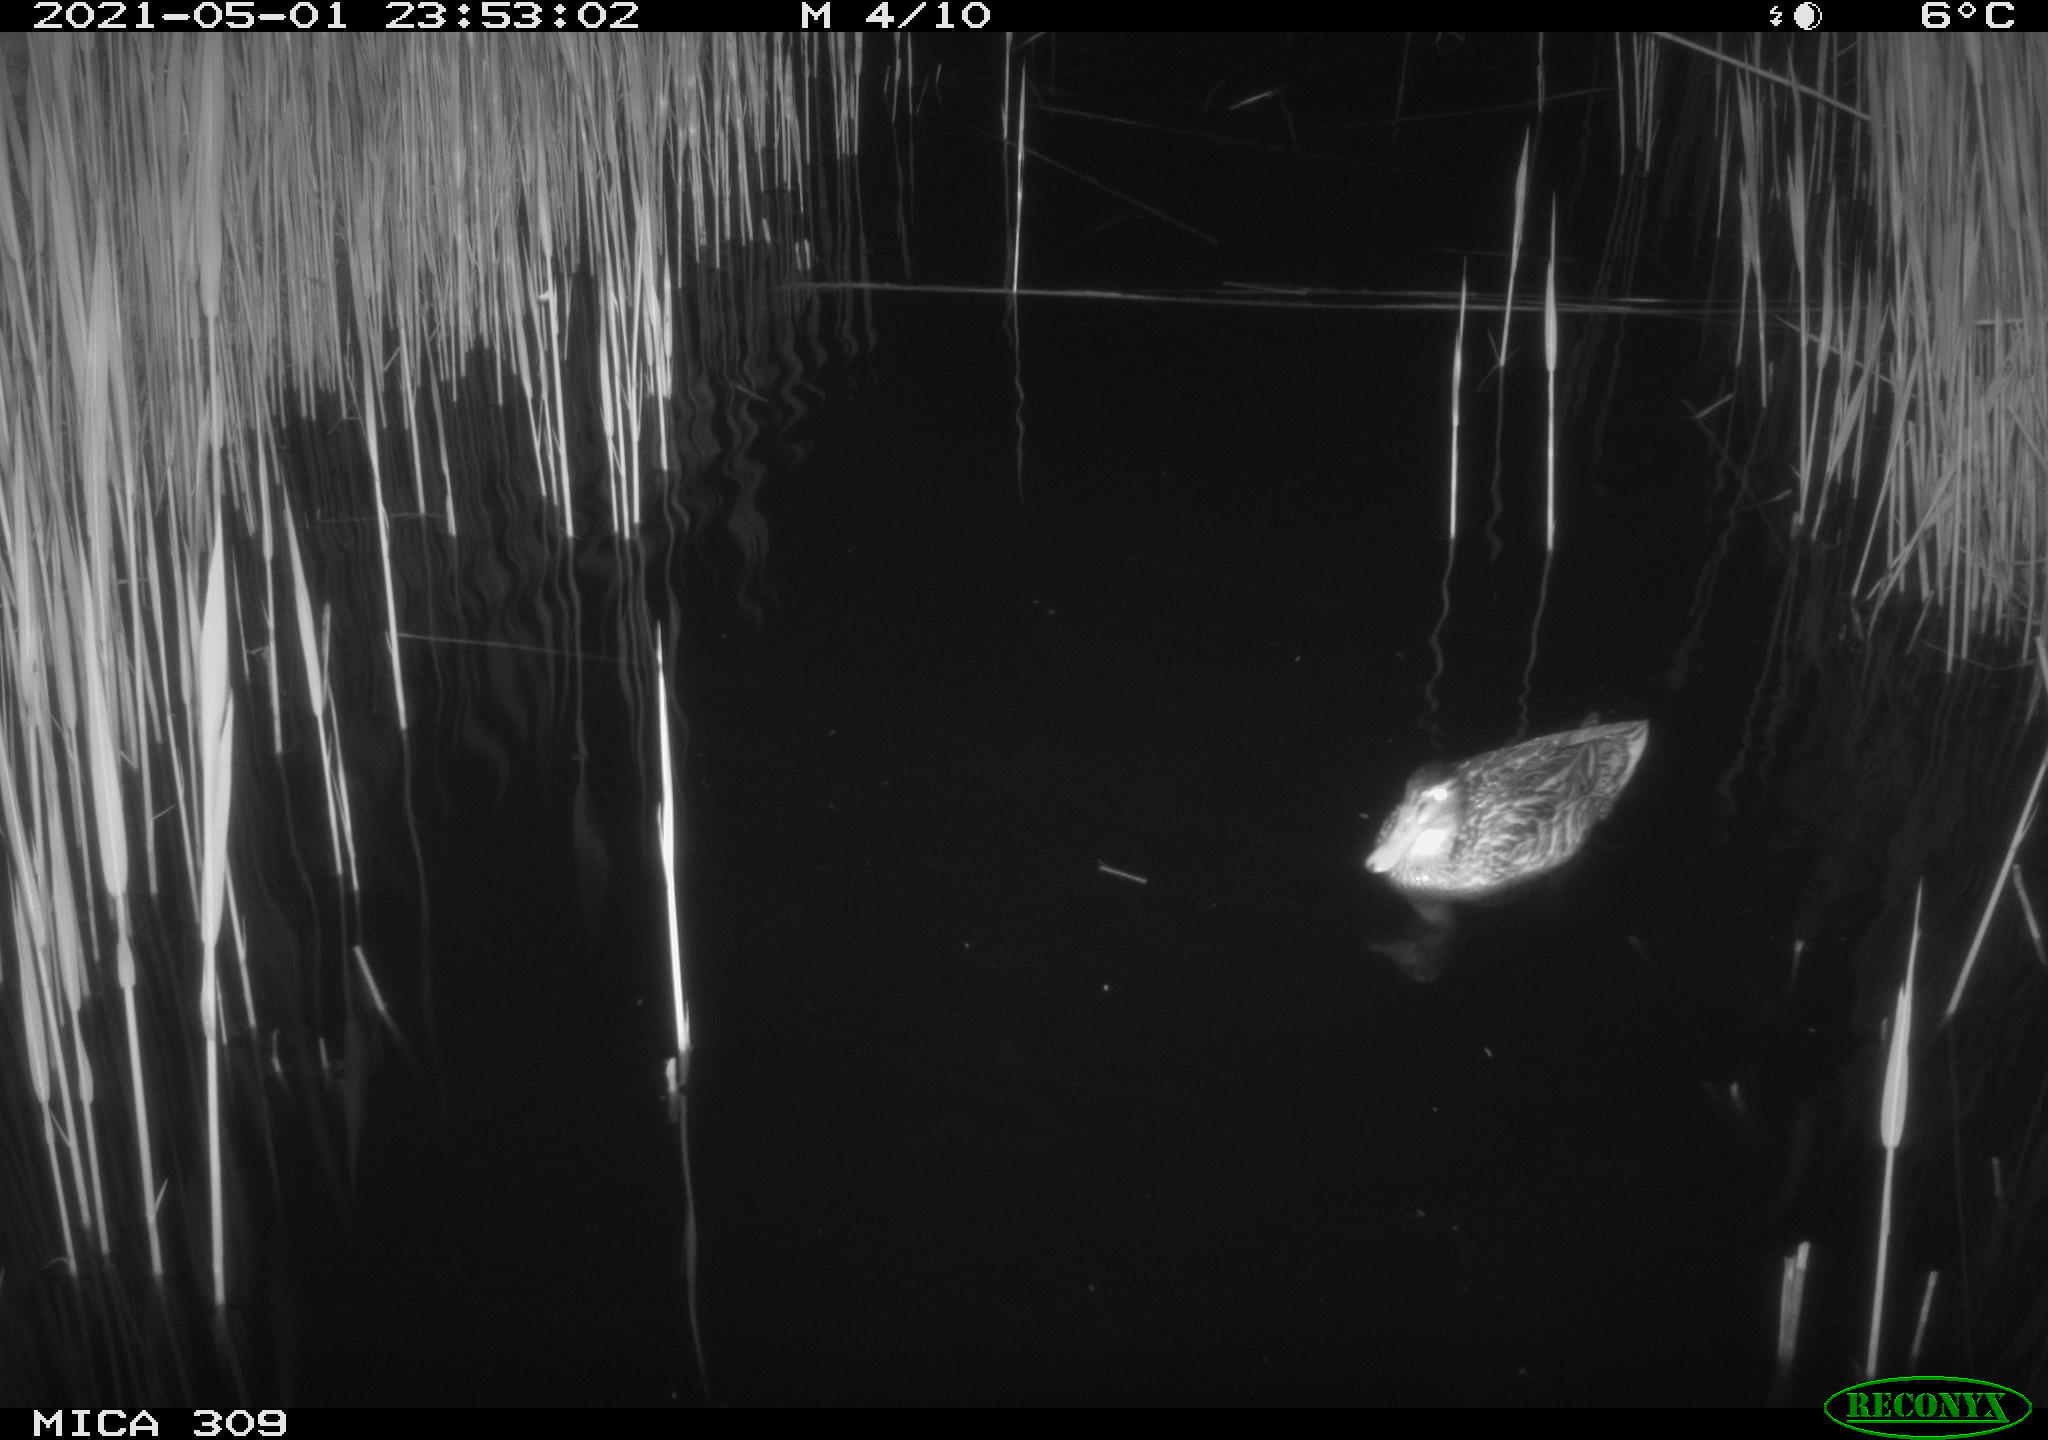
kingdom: Animalia
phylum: Chordata
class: Aves
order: Anseriformes
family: Anatidae
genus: Anas
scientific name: Anas platyrhynchos
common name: Mallard
